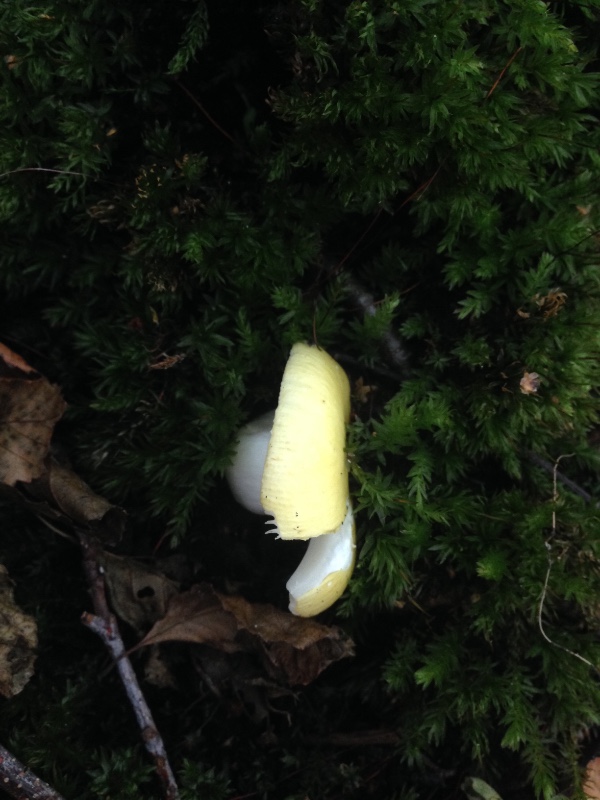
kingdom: Fungi
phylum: Basidiomycota
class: Agaricomycetes
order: Russulales
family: Russulaceae
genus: Russula
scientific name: Russula claroflava
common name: birke-skørhat
